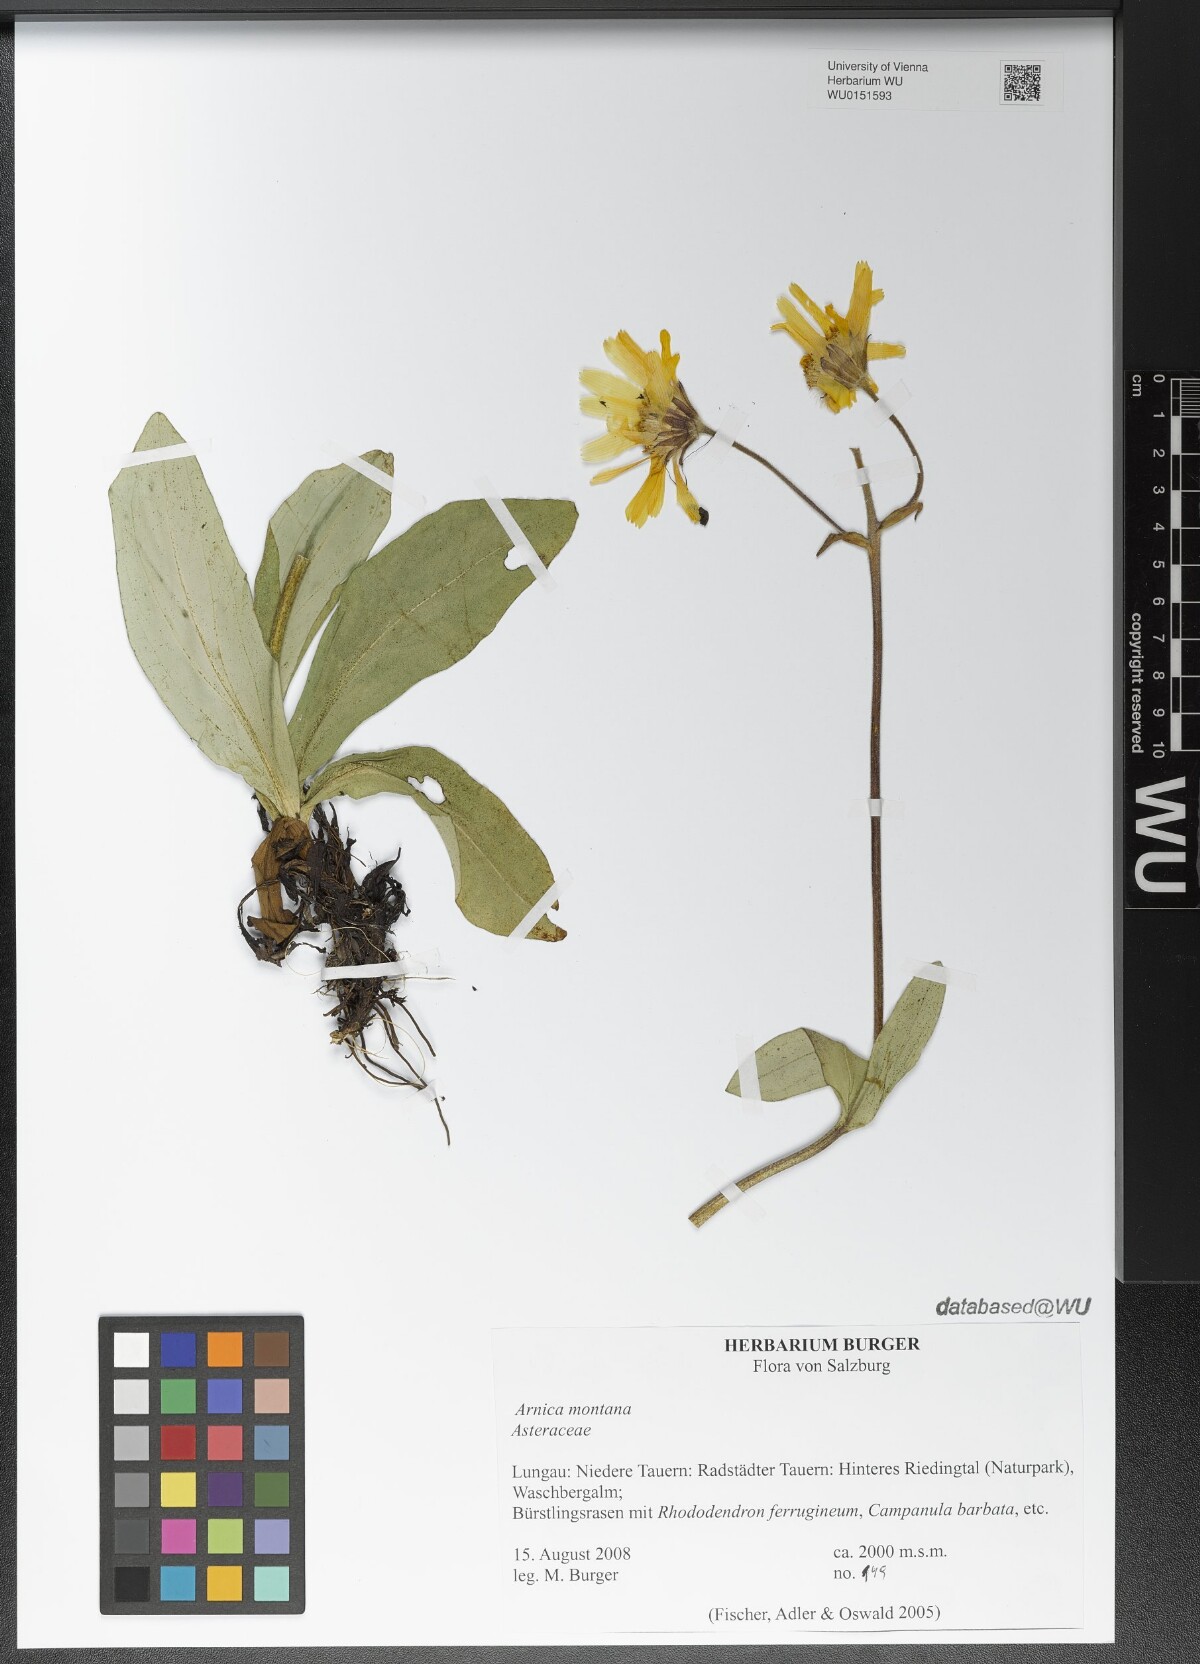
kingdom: Plantae
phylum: Tracheophyta
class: Magnoliopsida
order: Asterales
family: Asteraceae
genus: Arnica
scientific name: Arnica montana
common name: Leopard's bane
